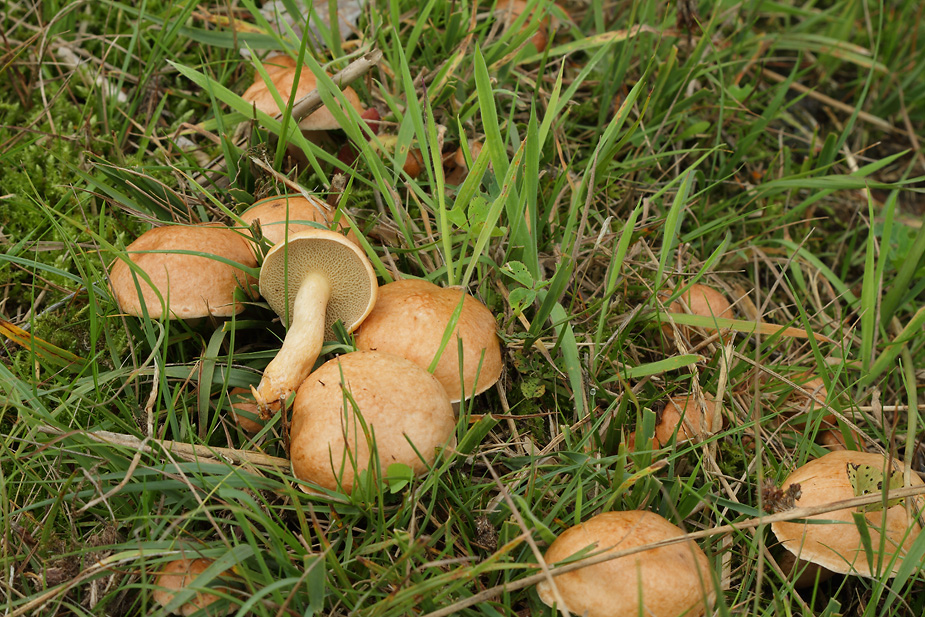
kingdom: Fungi
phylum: Basidiomycota
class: Agaricomycetes
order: Boletales
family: Suillaceae
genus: Suillus
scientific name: Suillus bovinus
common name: grovporet slimrørhat
